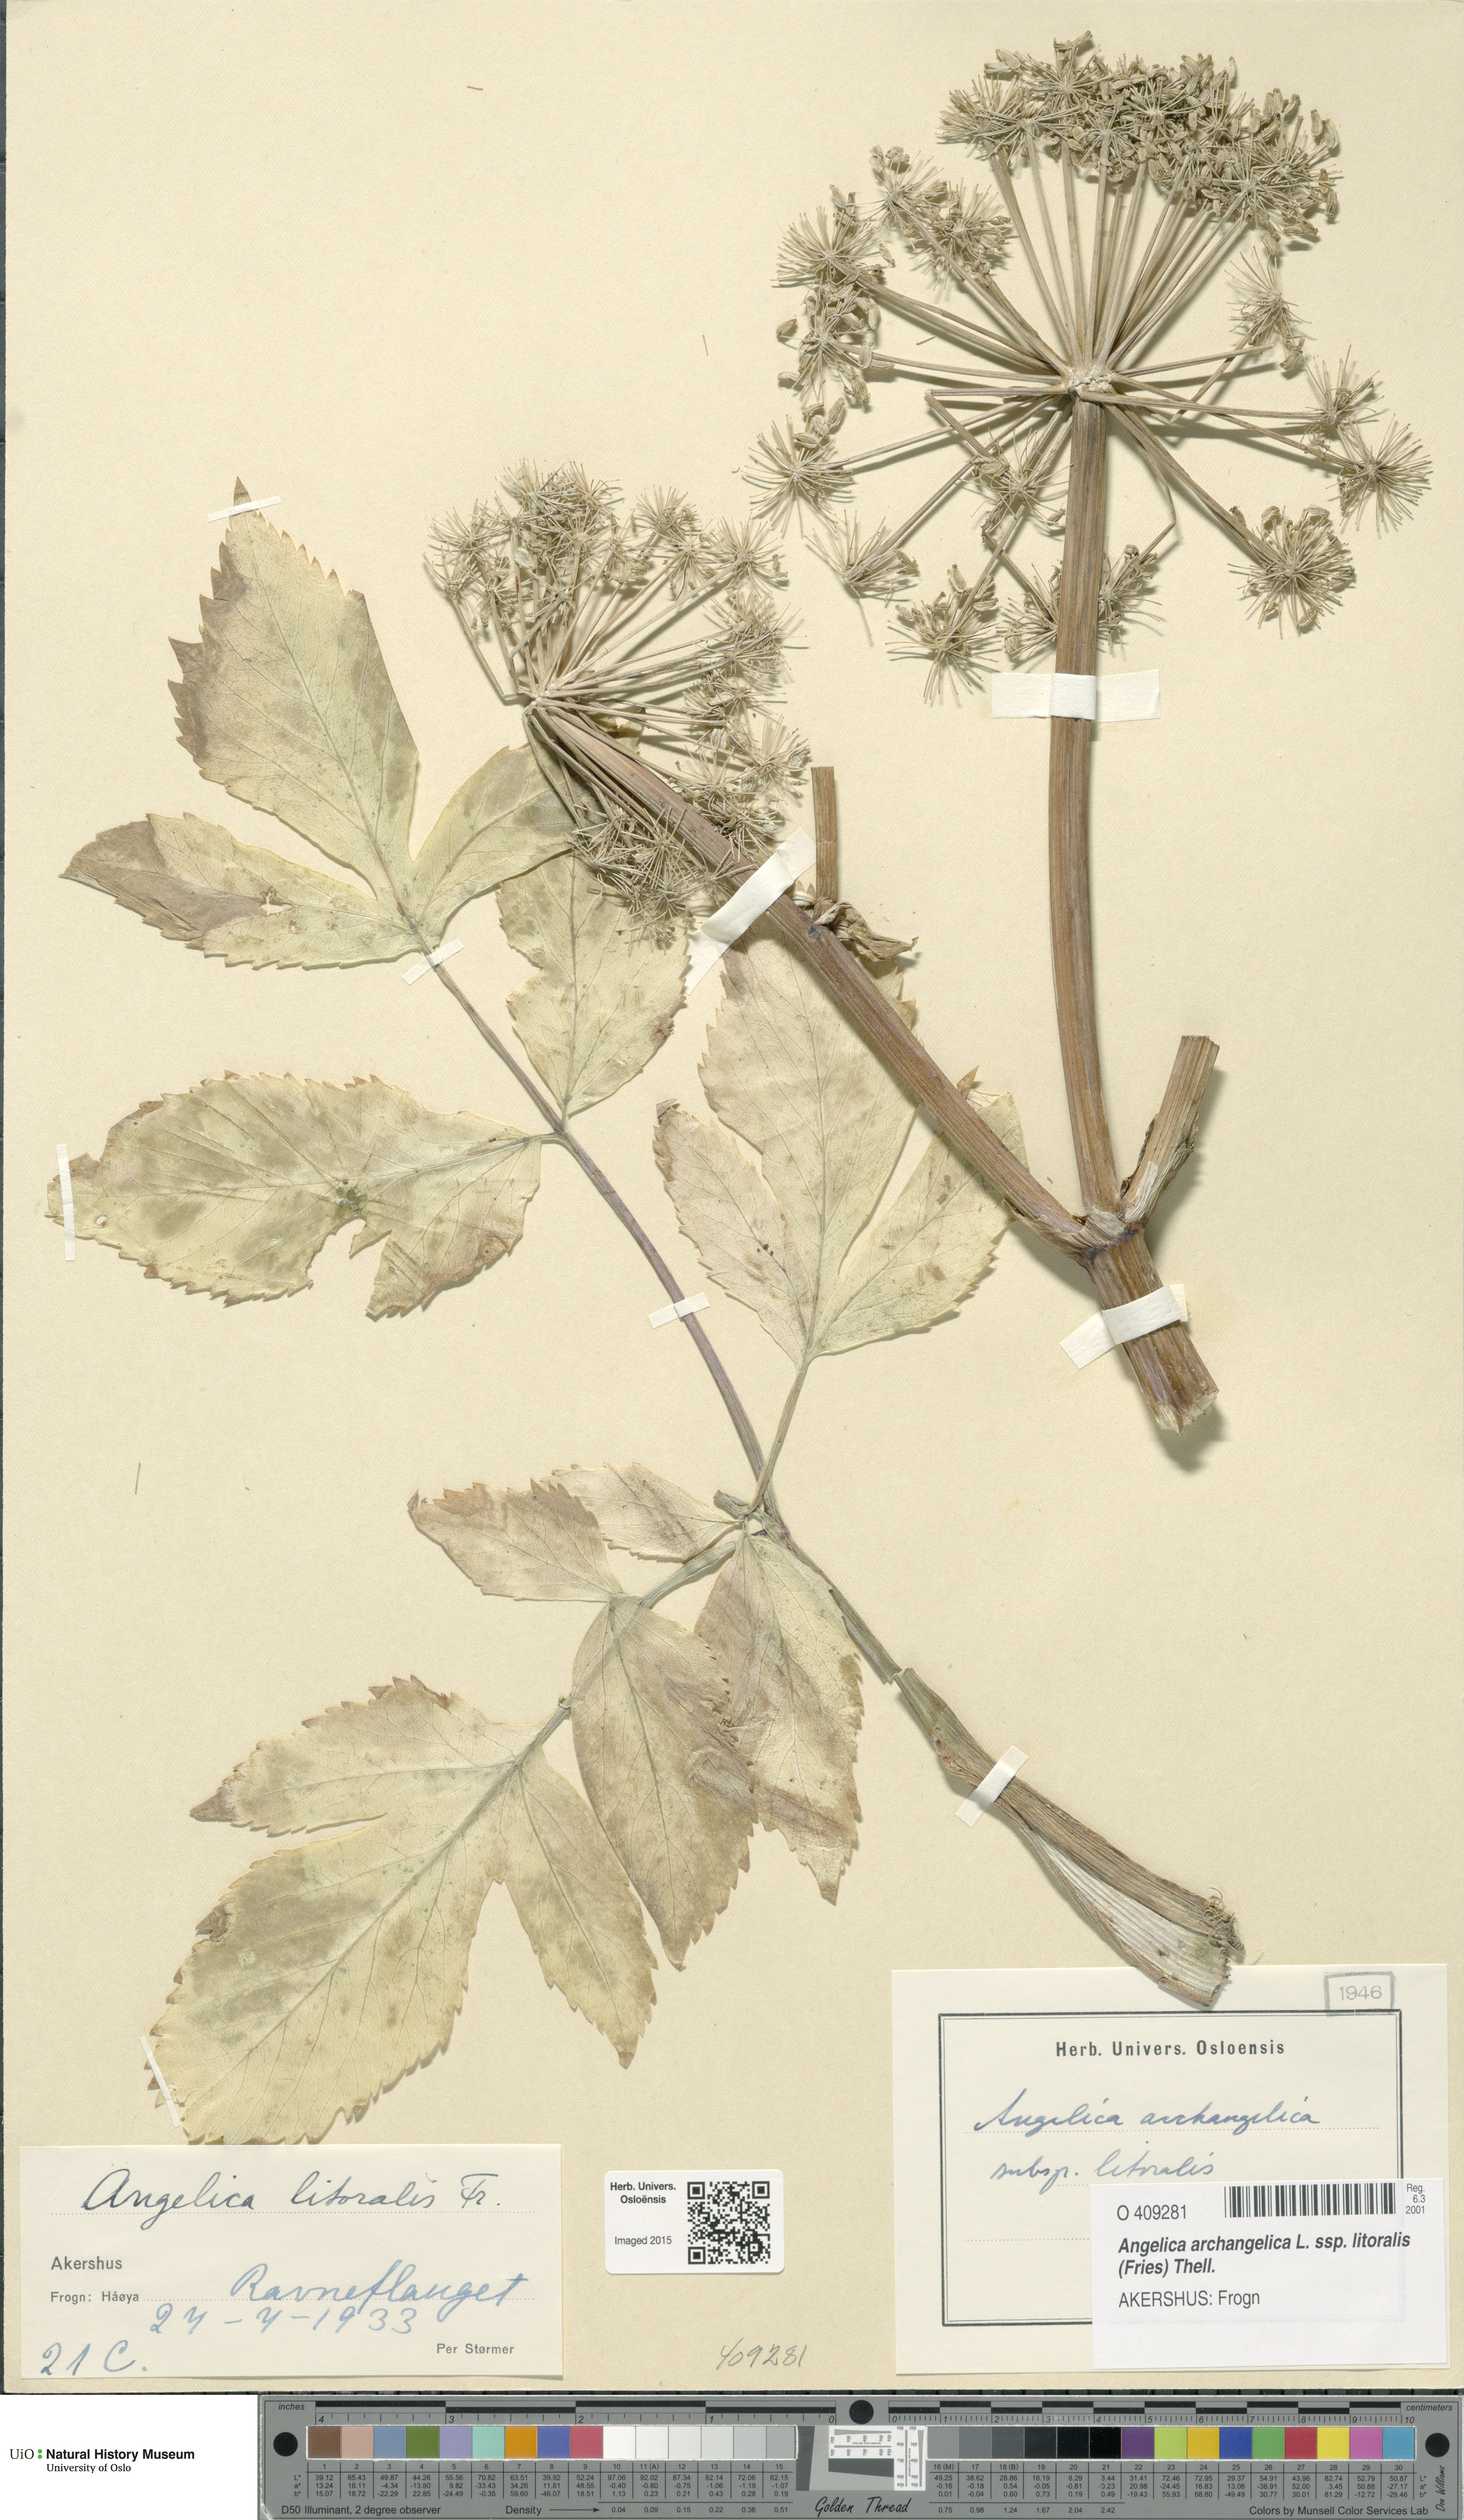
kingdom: Plantae
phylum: Tracheophyta
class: Magnoliopsida
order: Apiales
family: Apiaceae
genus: Angelica
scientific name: Angelica archangelica
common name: Garden angelica
